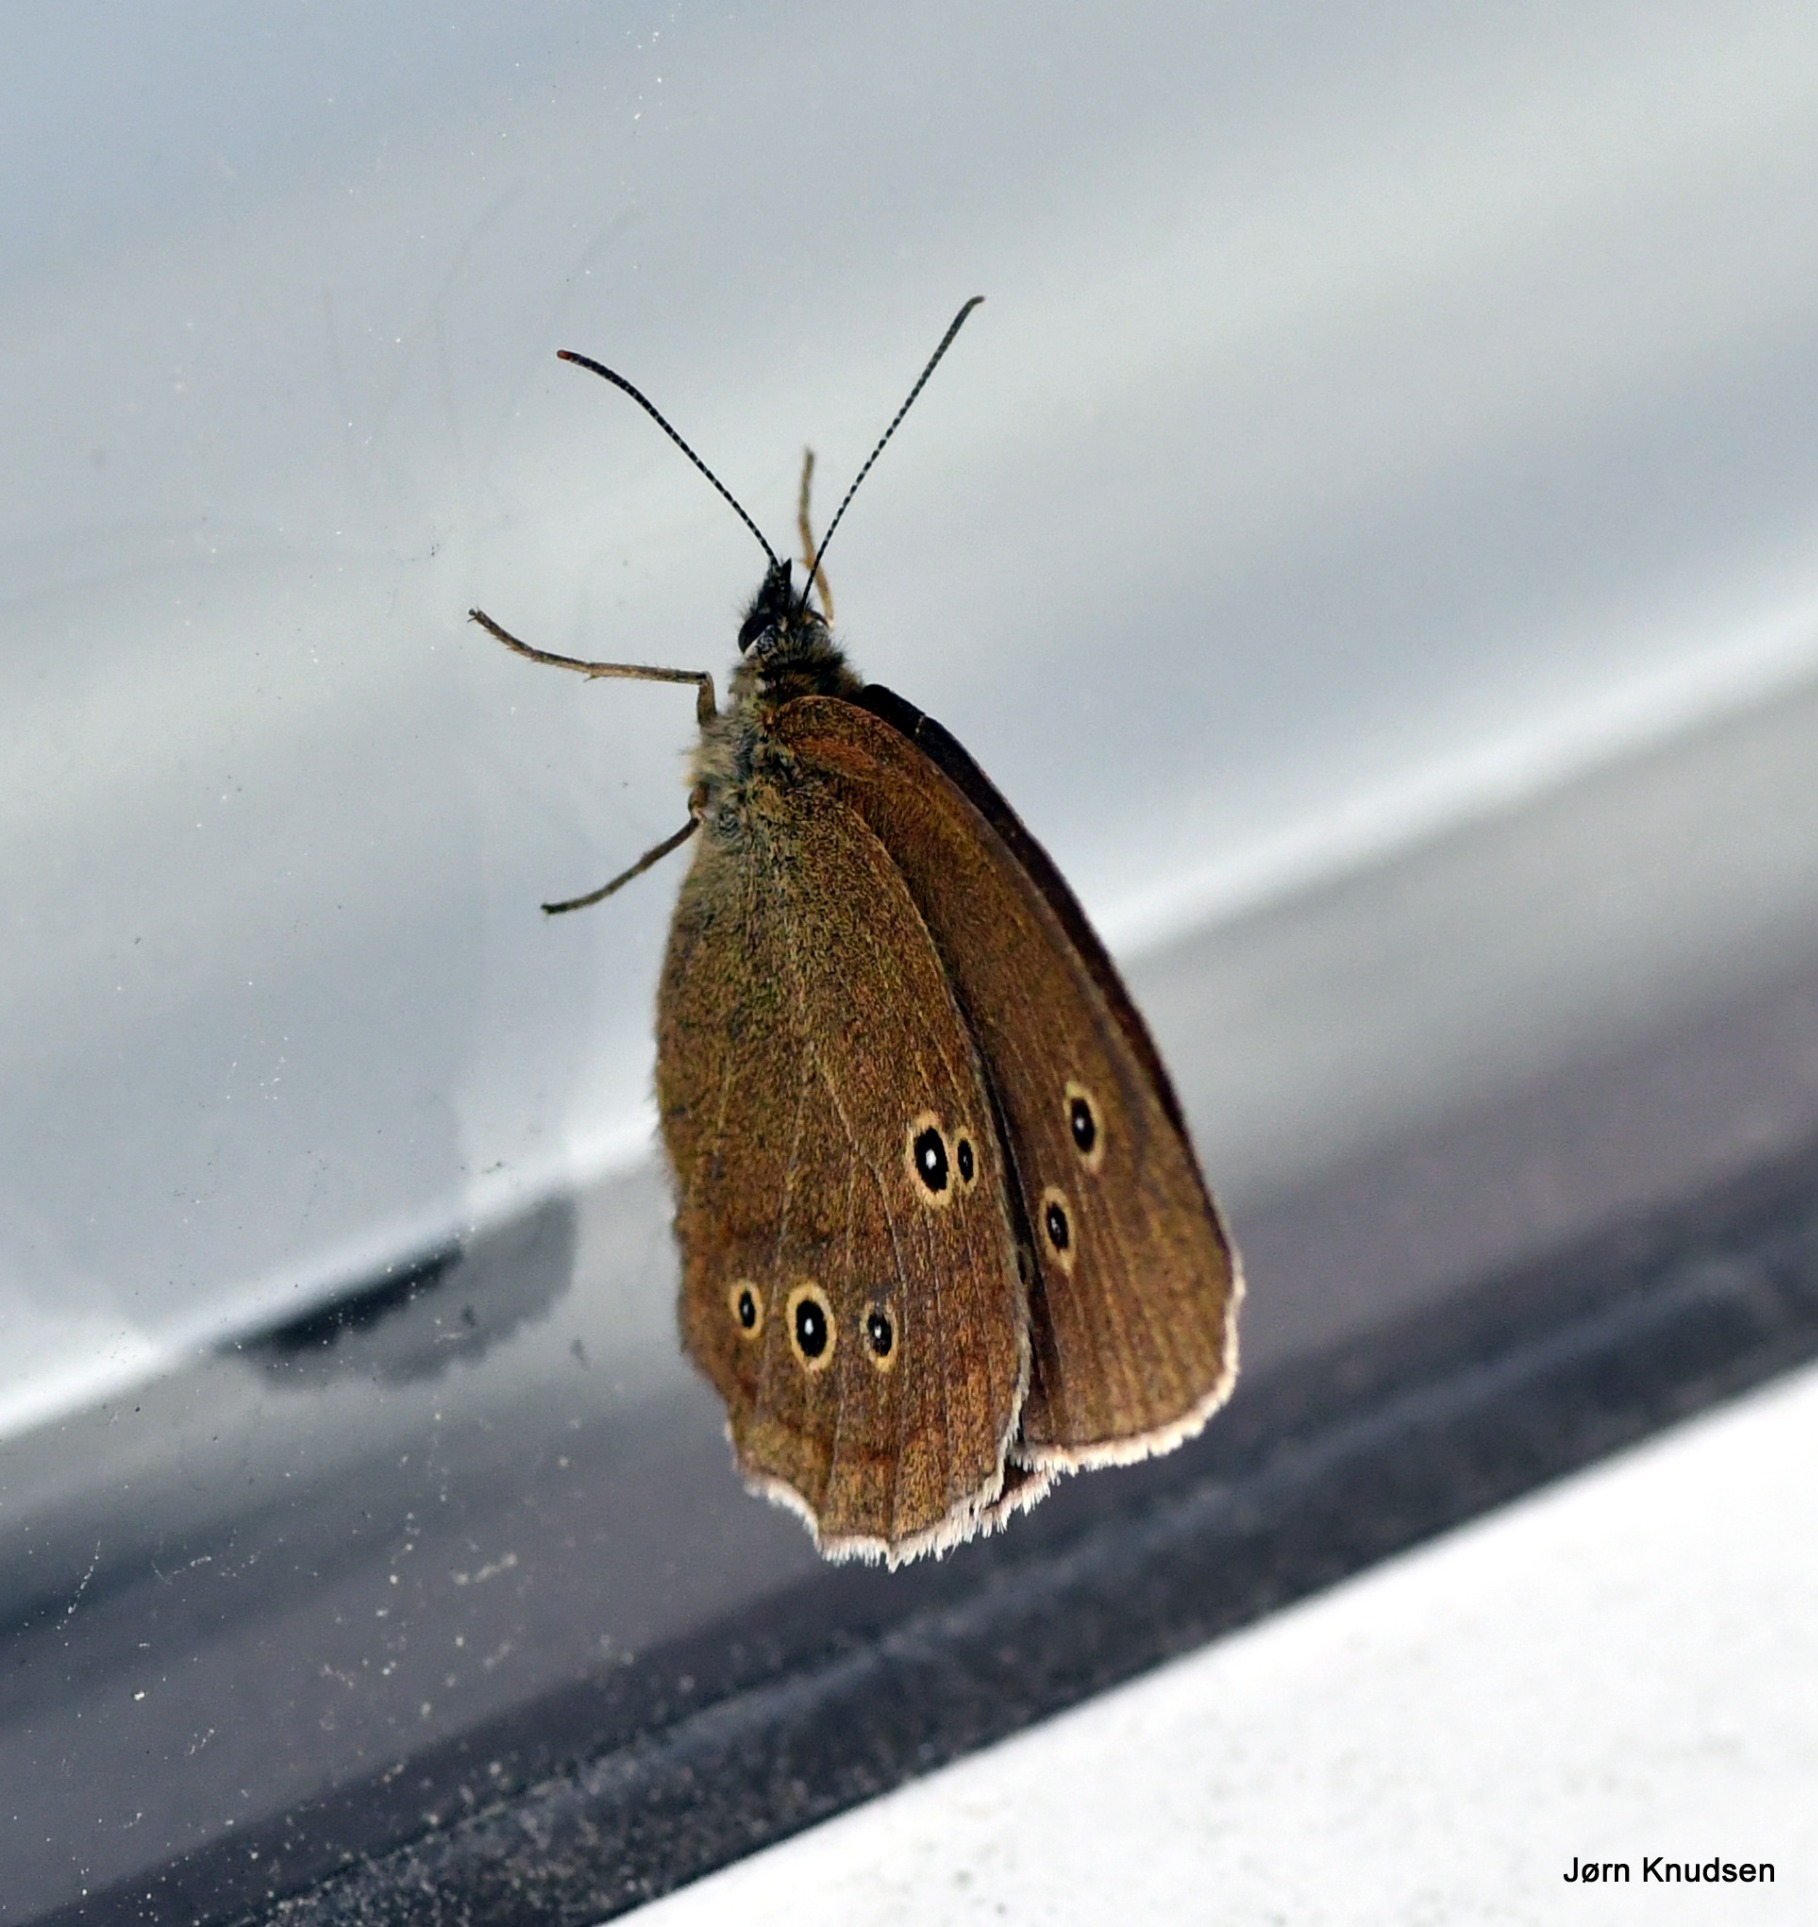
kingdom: Animalia
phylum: Arthropoda
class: Insecta
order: Lepidoptera
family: Nymphalidae
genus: Aphantopus
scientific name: Aphantopus hyperantus
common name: Engrandøje
